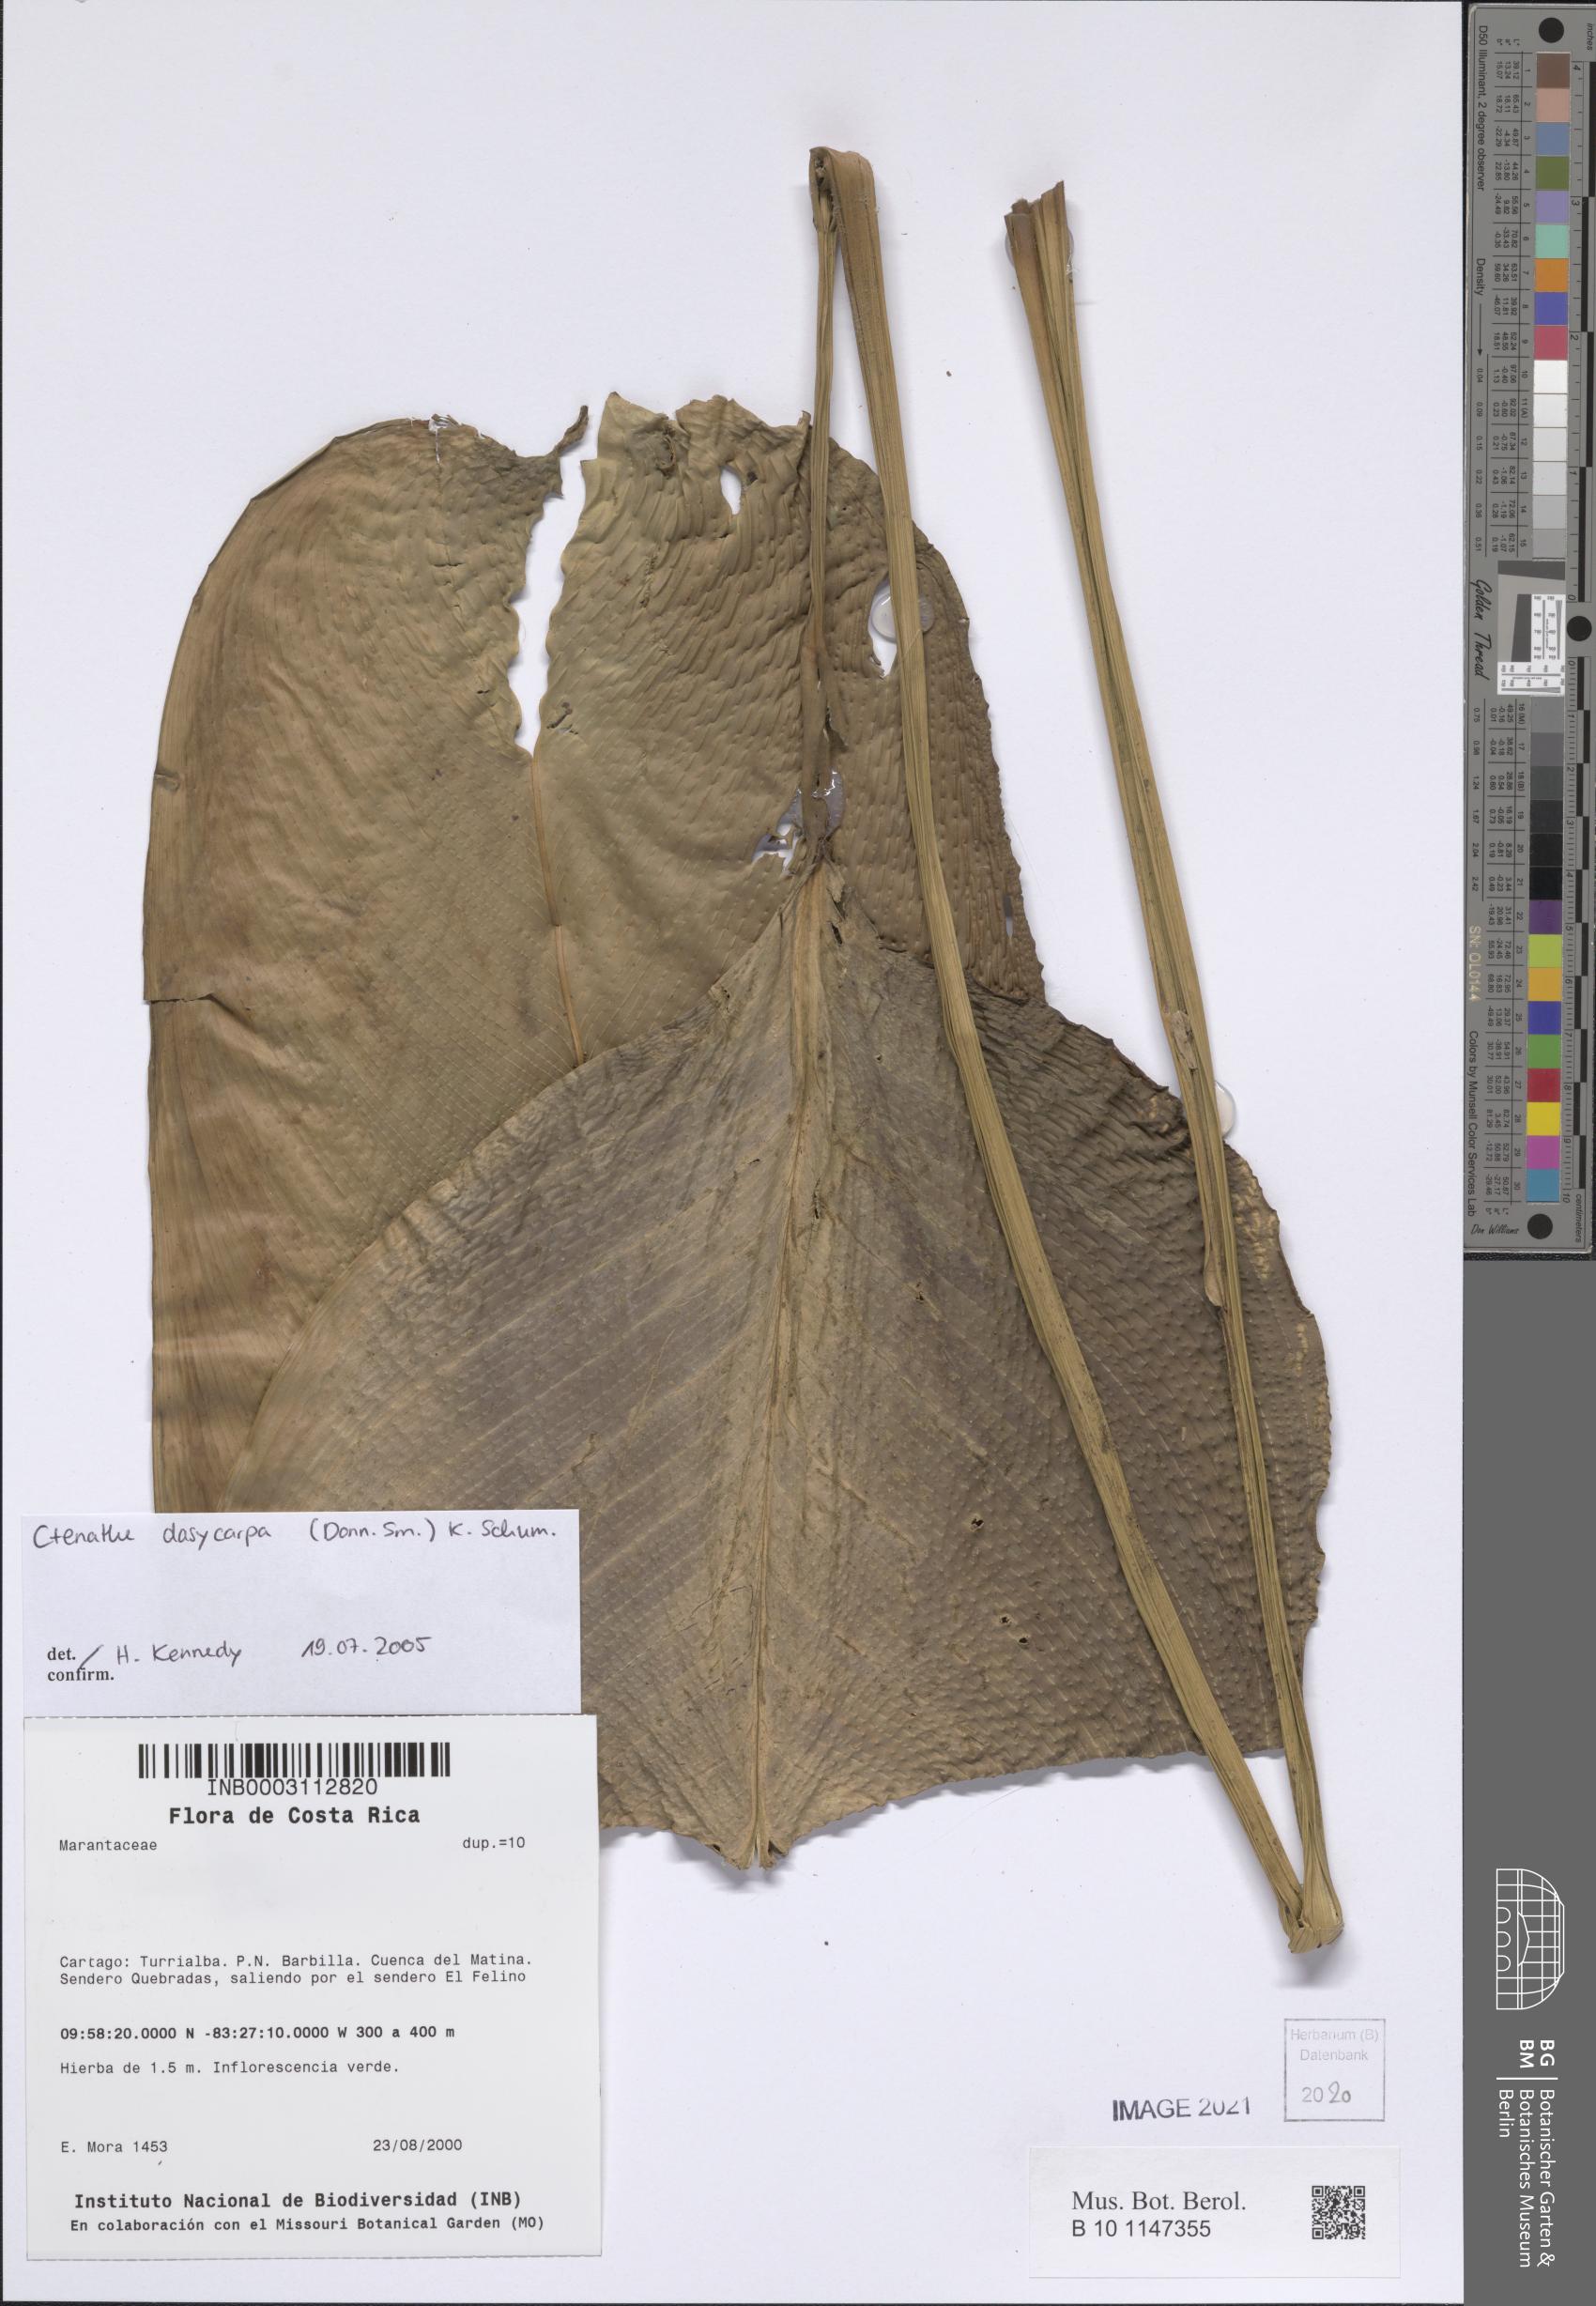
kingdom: Plantae
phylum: Tracheophyta
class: Liliopsida
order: Zingiberales
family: Marantaceae
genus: Ctenanthe
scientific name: Ctenanthe dasycarpa
